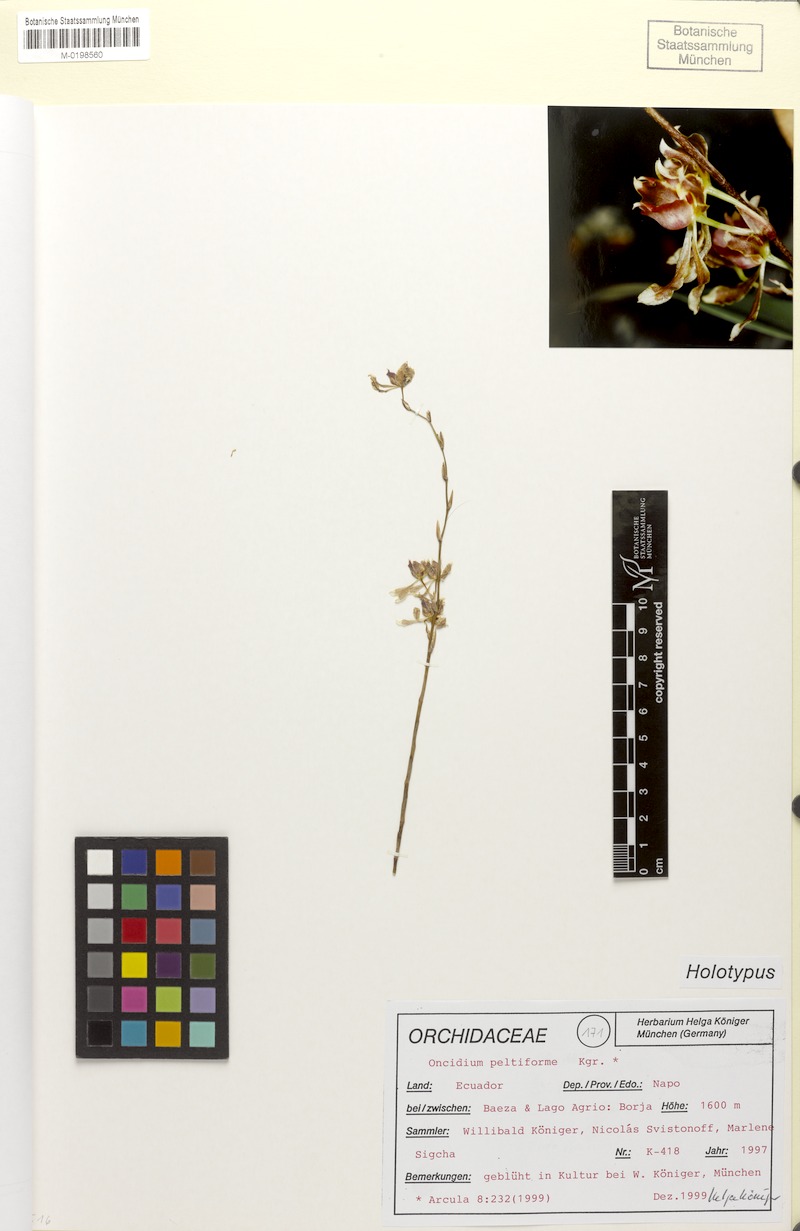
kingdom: Plantae
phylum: Tracheophyta
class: Liliopsida
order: Asparagales
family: Orchidaceae
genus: Oncidium
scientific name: Oncidium peltiforme
